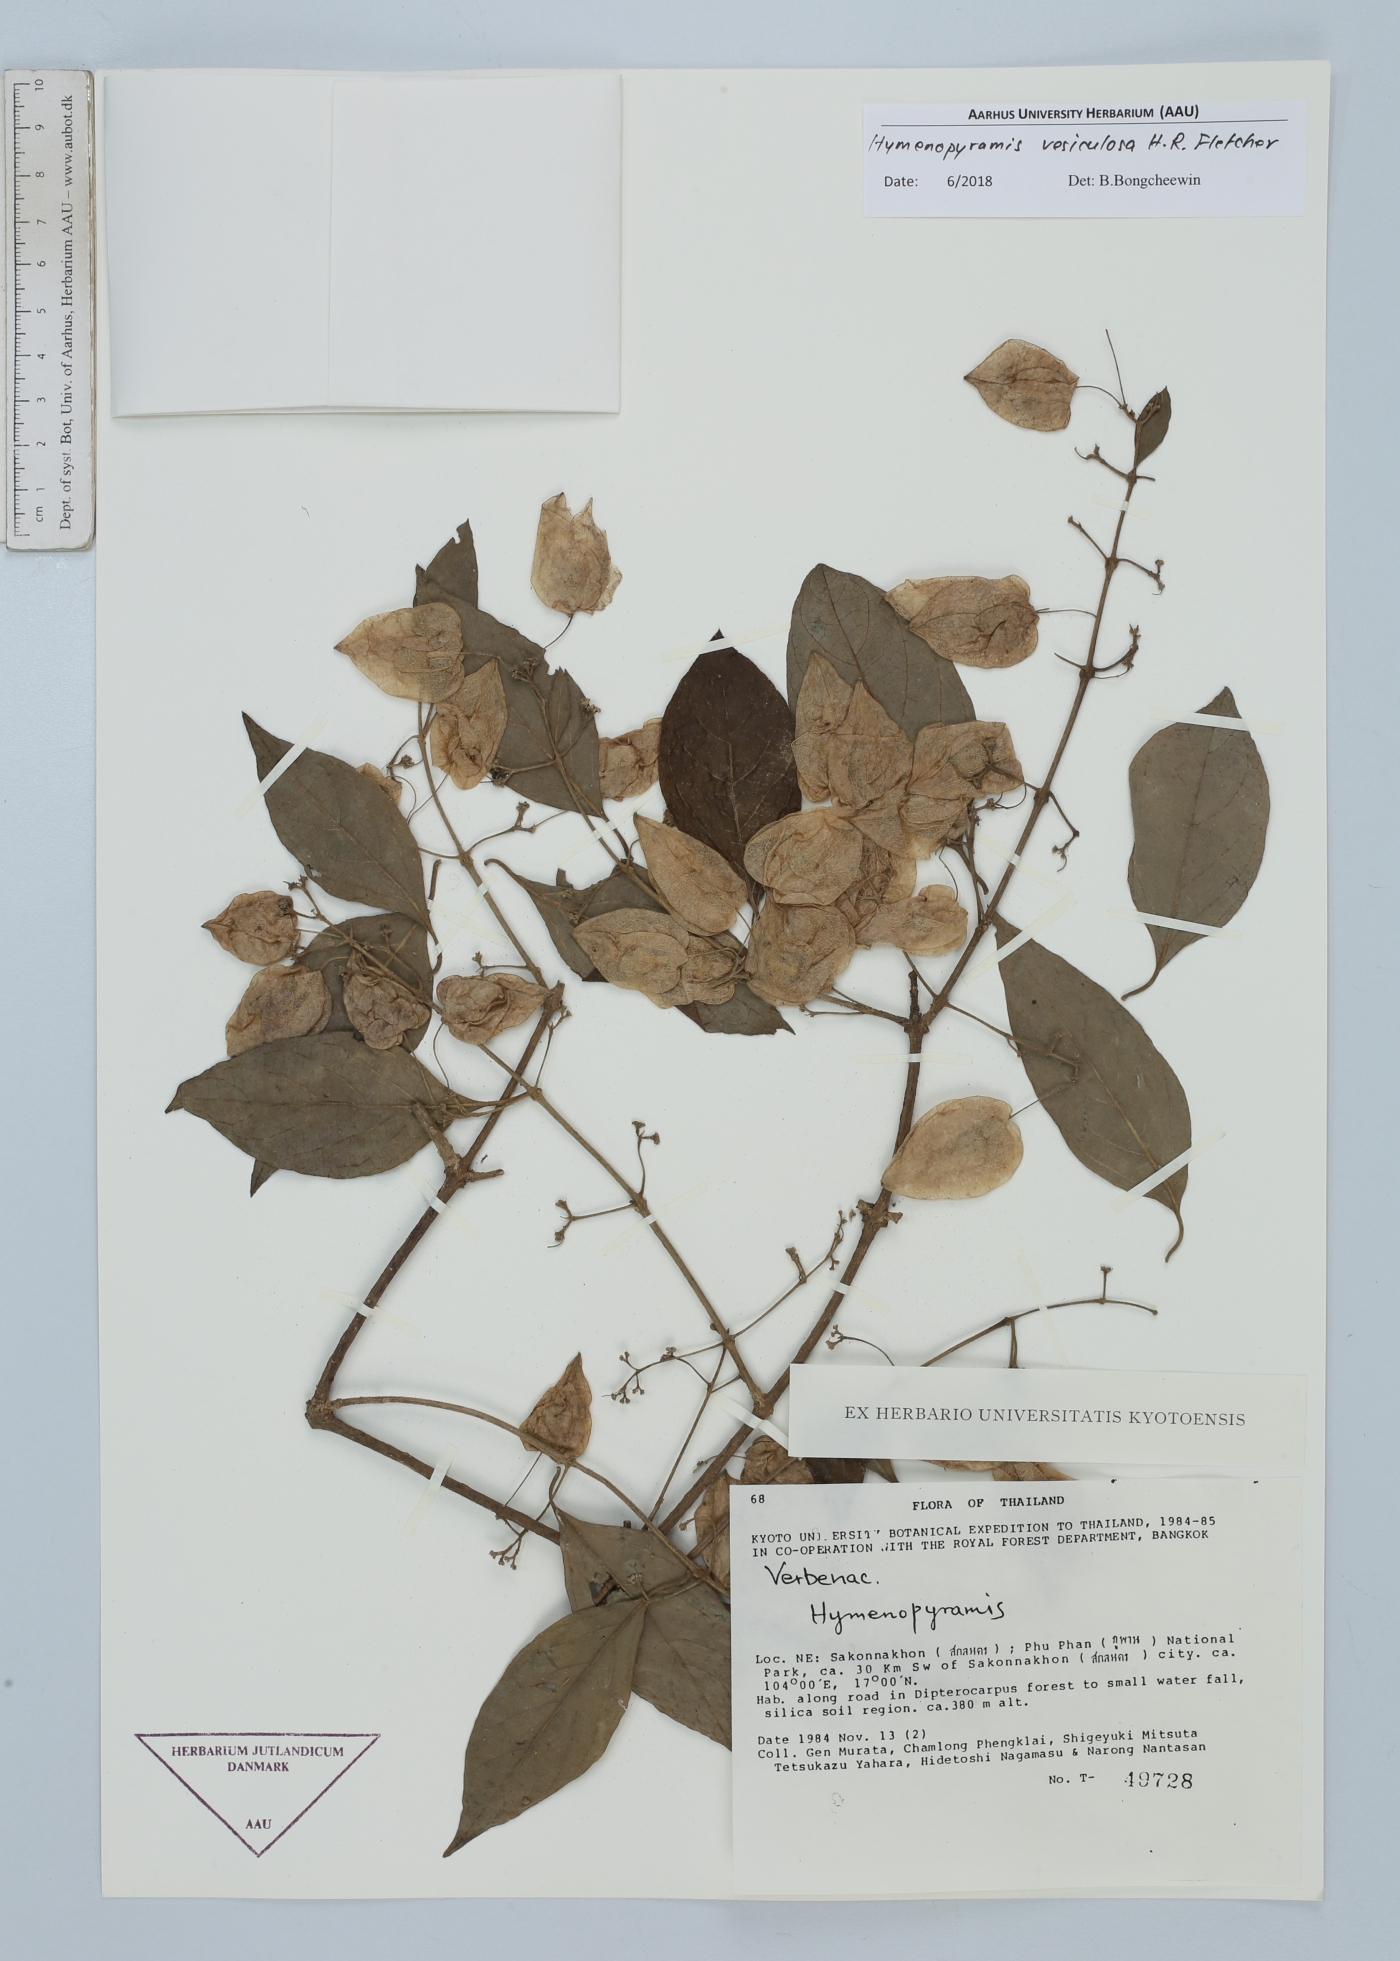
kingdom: Plantae
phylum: Tracheophyta
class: Magnoliopsida
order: Lamiales
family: Lamiaceae
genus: Hymenopyramis
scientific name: Hymenopyramis vesiculosa
